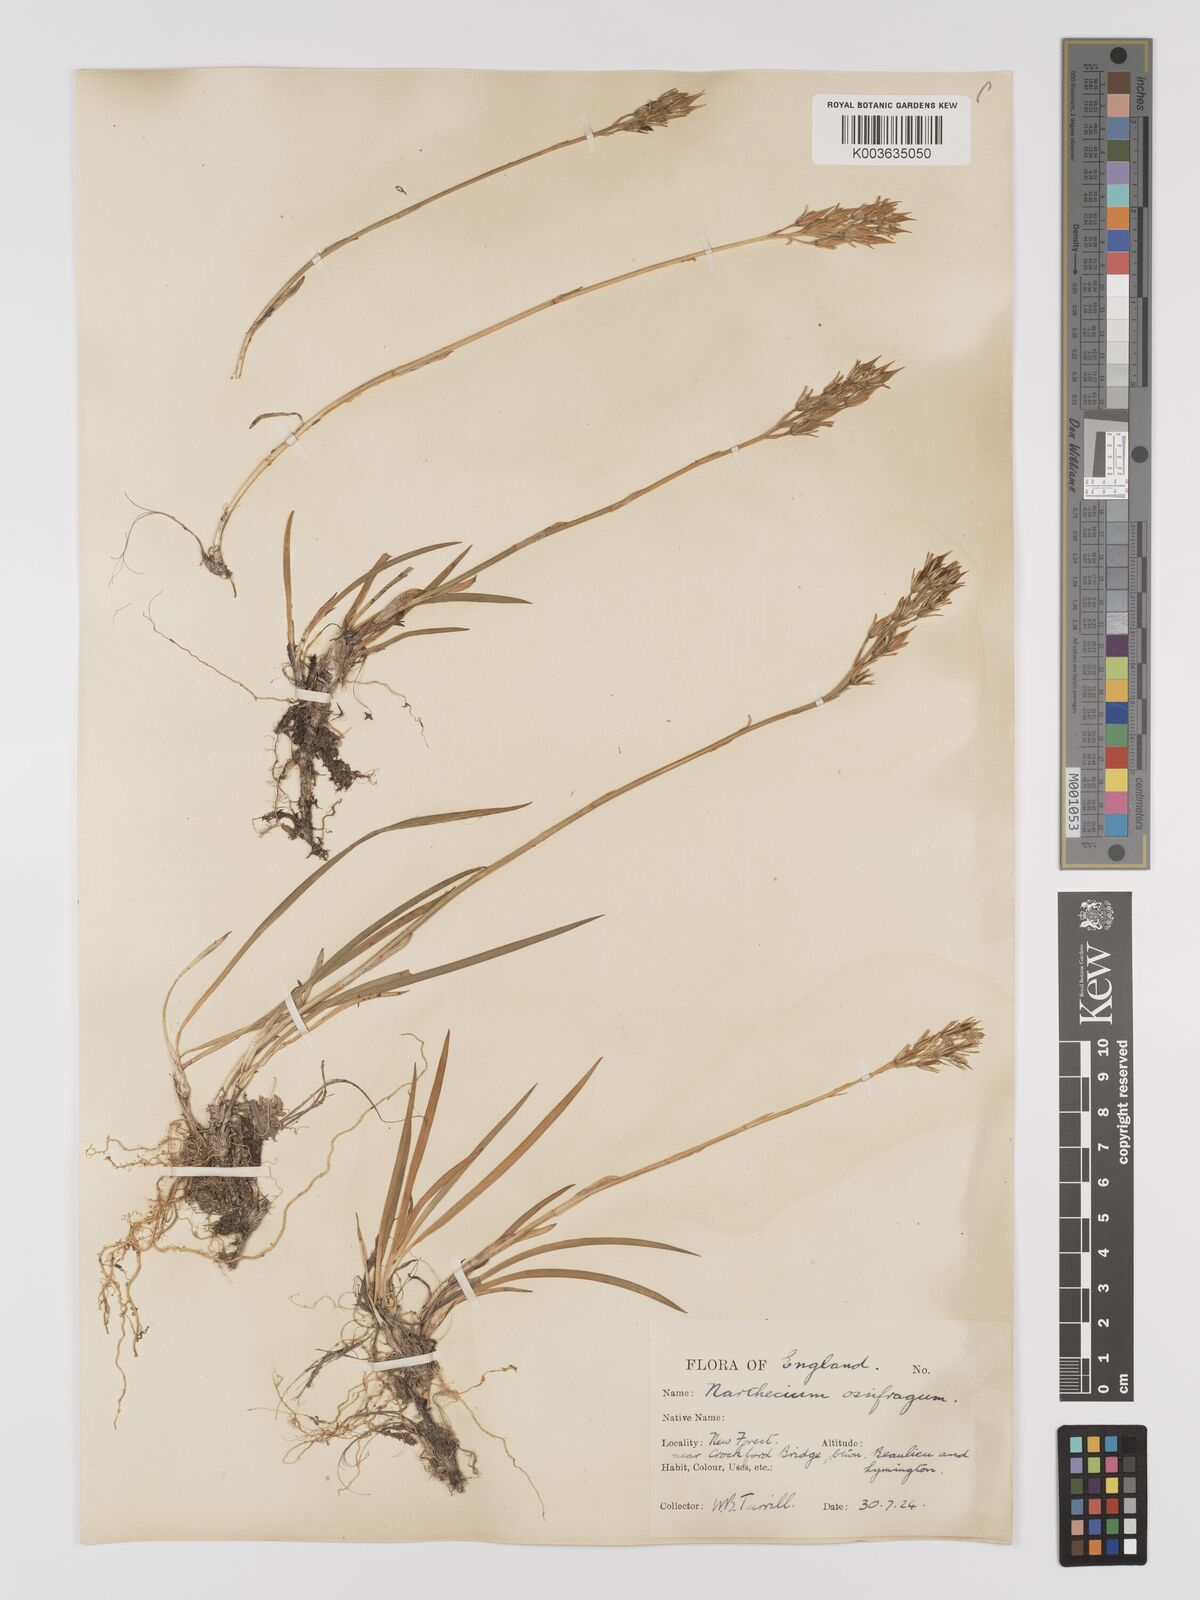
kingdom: Plantae
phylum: Tracheophyta
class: Liliopsida
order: Dioscoreales
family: Nartheciaceae
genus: Narthecium
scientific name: Narthecium
